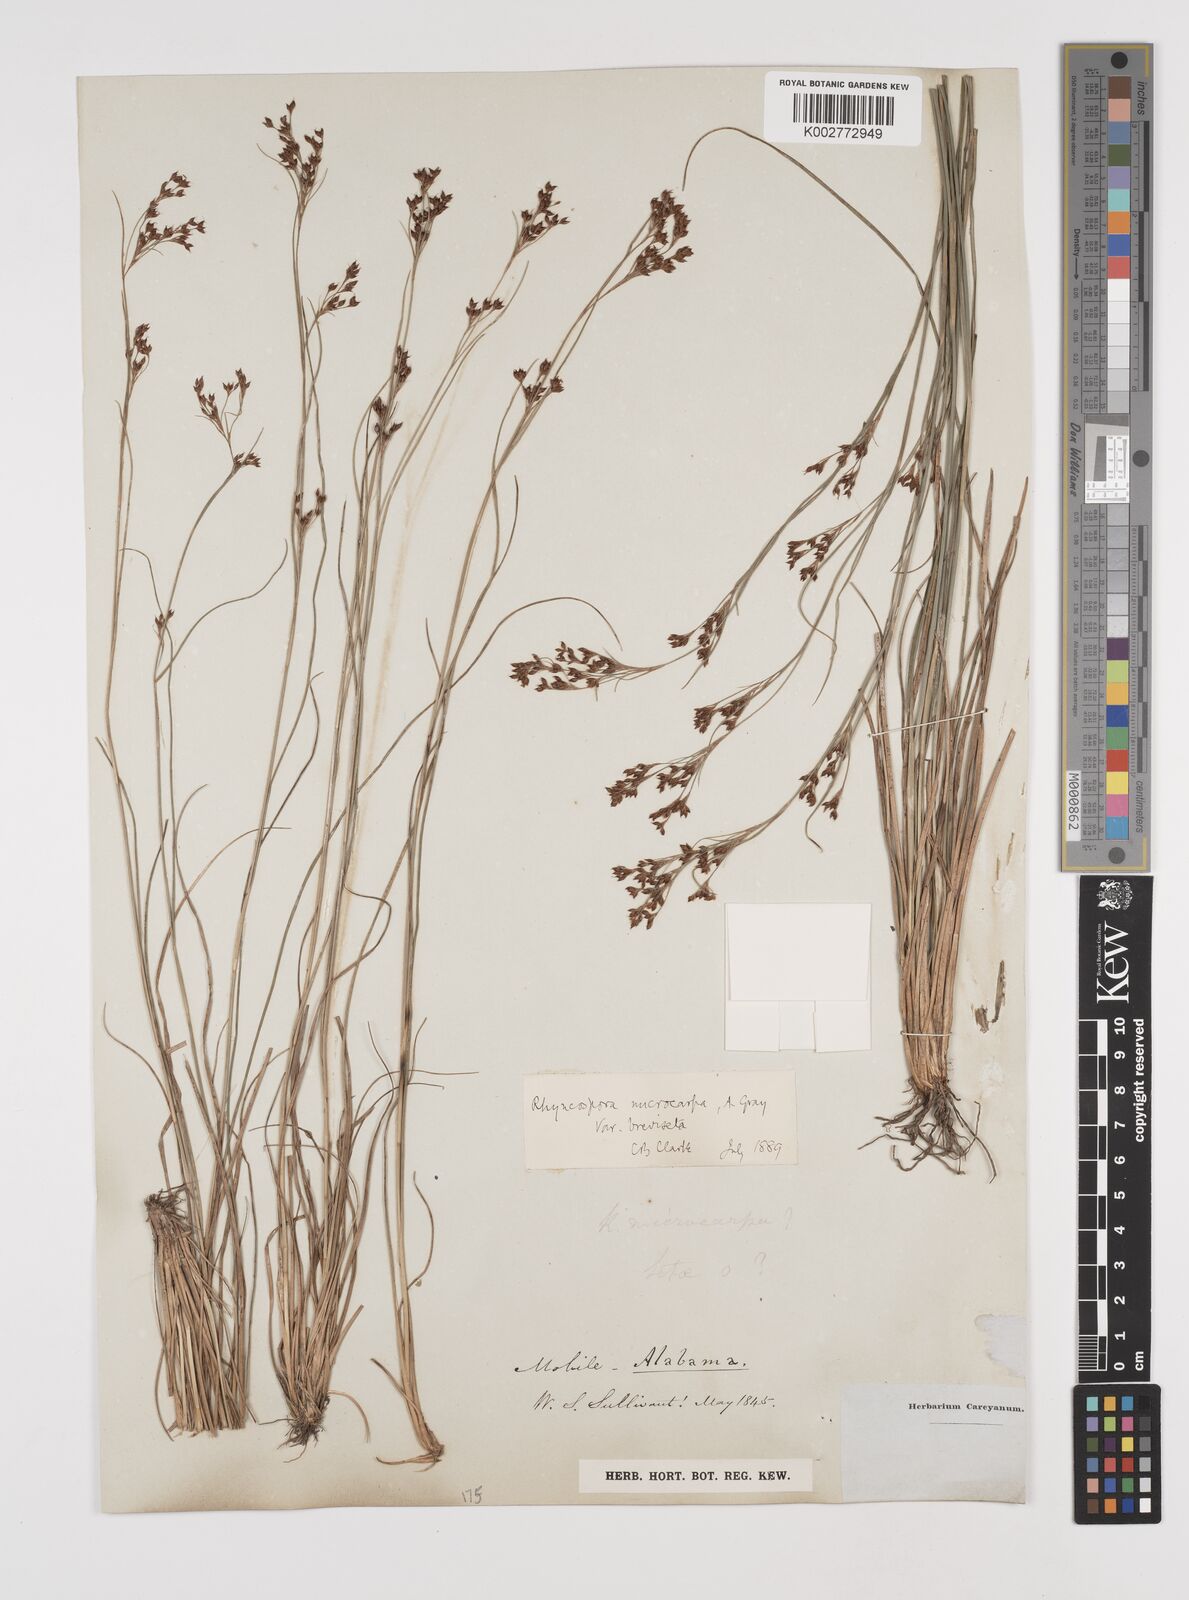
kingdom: Plantae
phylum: Tracheophyta
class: Liliopsida
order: Poales
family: Cyperaceae
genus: Rhynchospora
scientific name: Rhynchospora microcarpa
